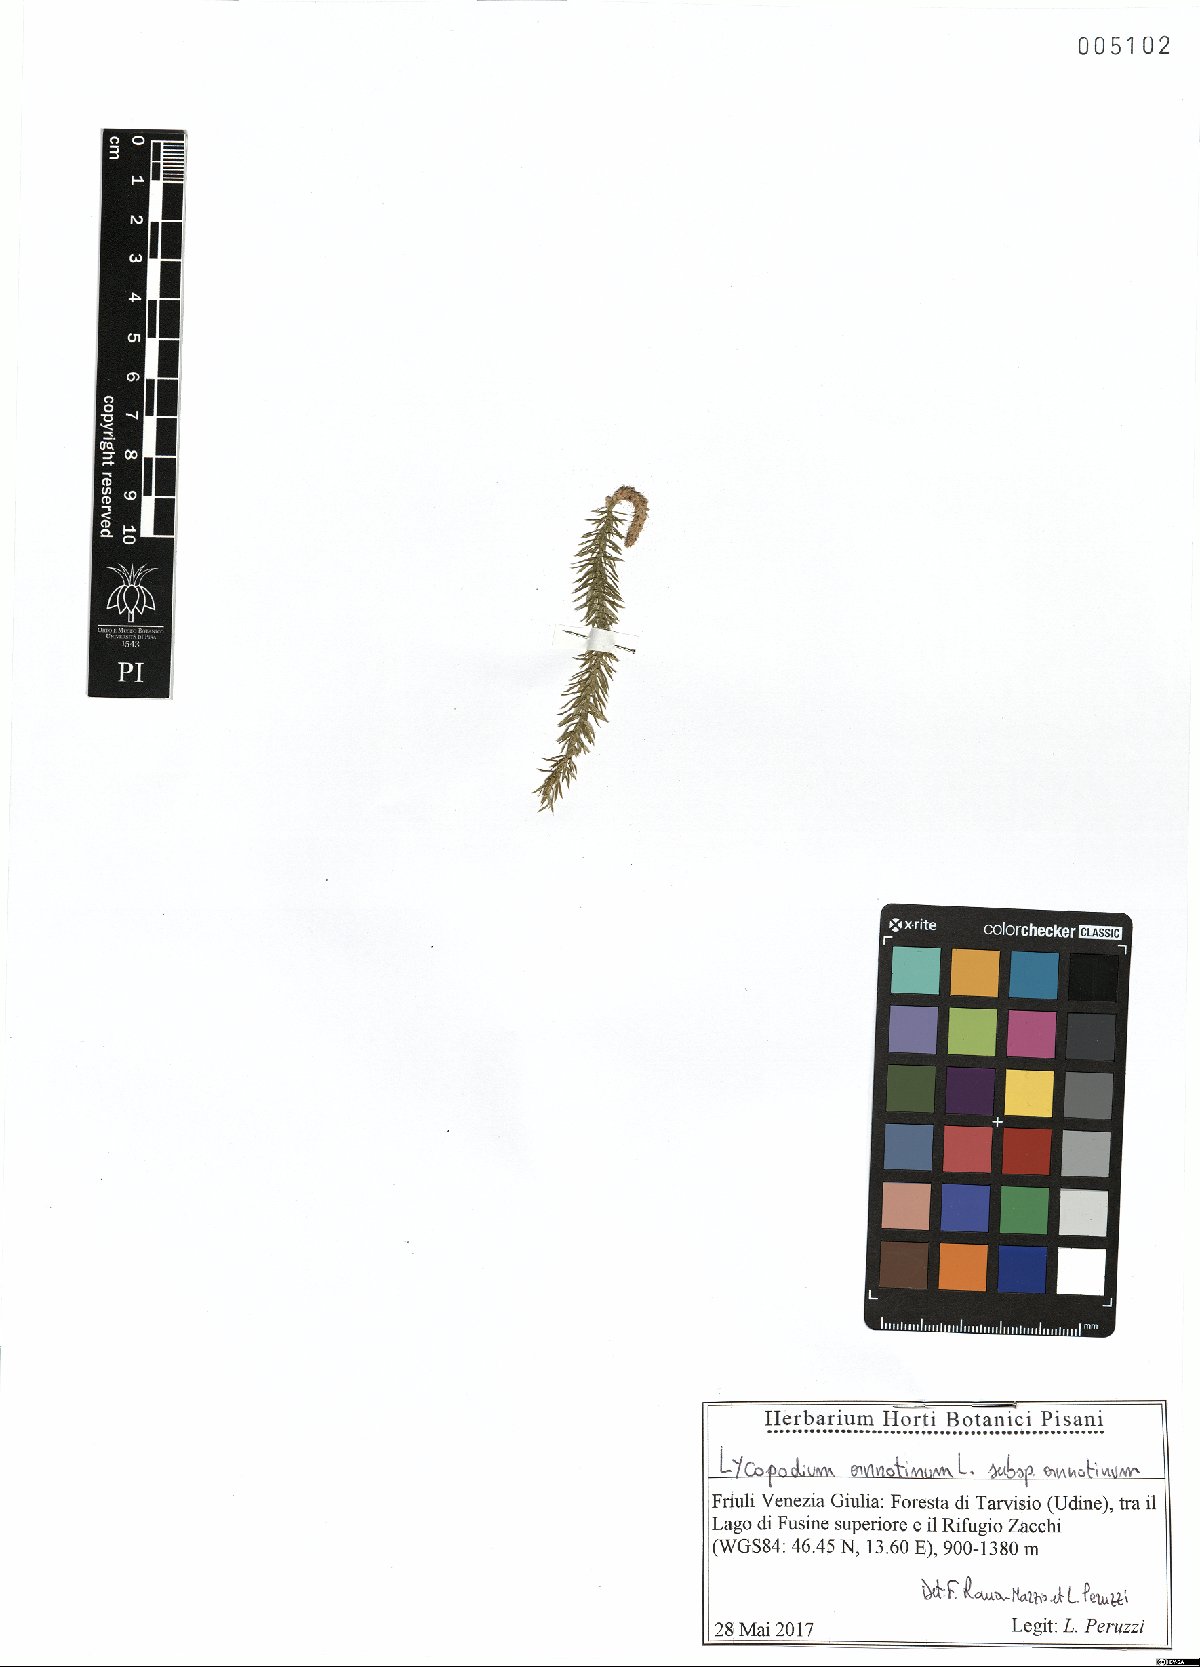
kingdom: Plantae
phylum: Tracheophyta
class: Lycopodiopsida
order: Lycopodiales
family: Lycopodiaceae
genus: Spinulum
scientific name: Spinulum annotinum
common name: Interrupted club-moss
